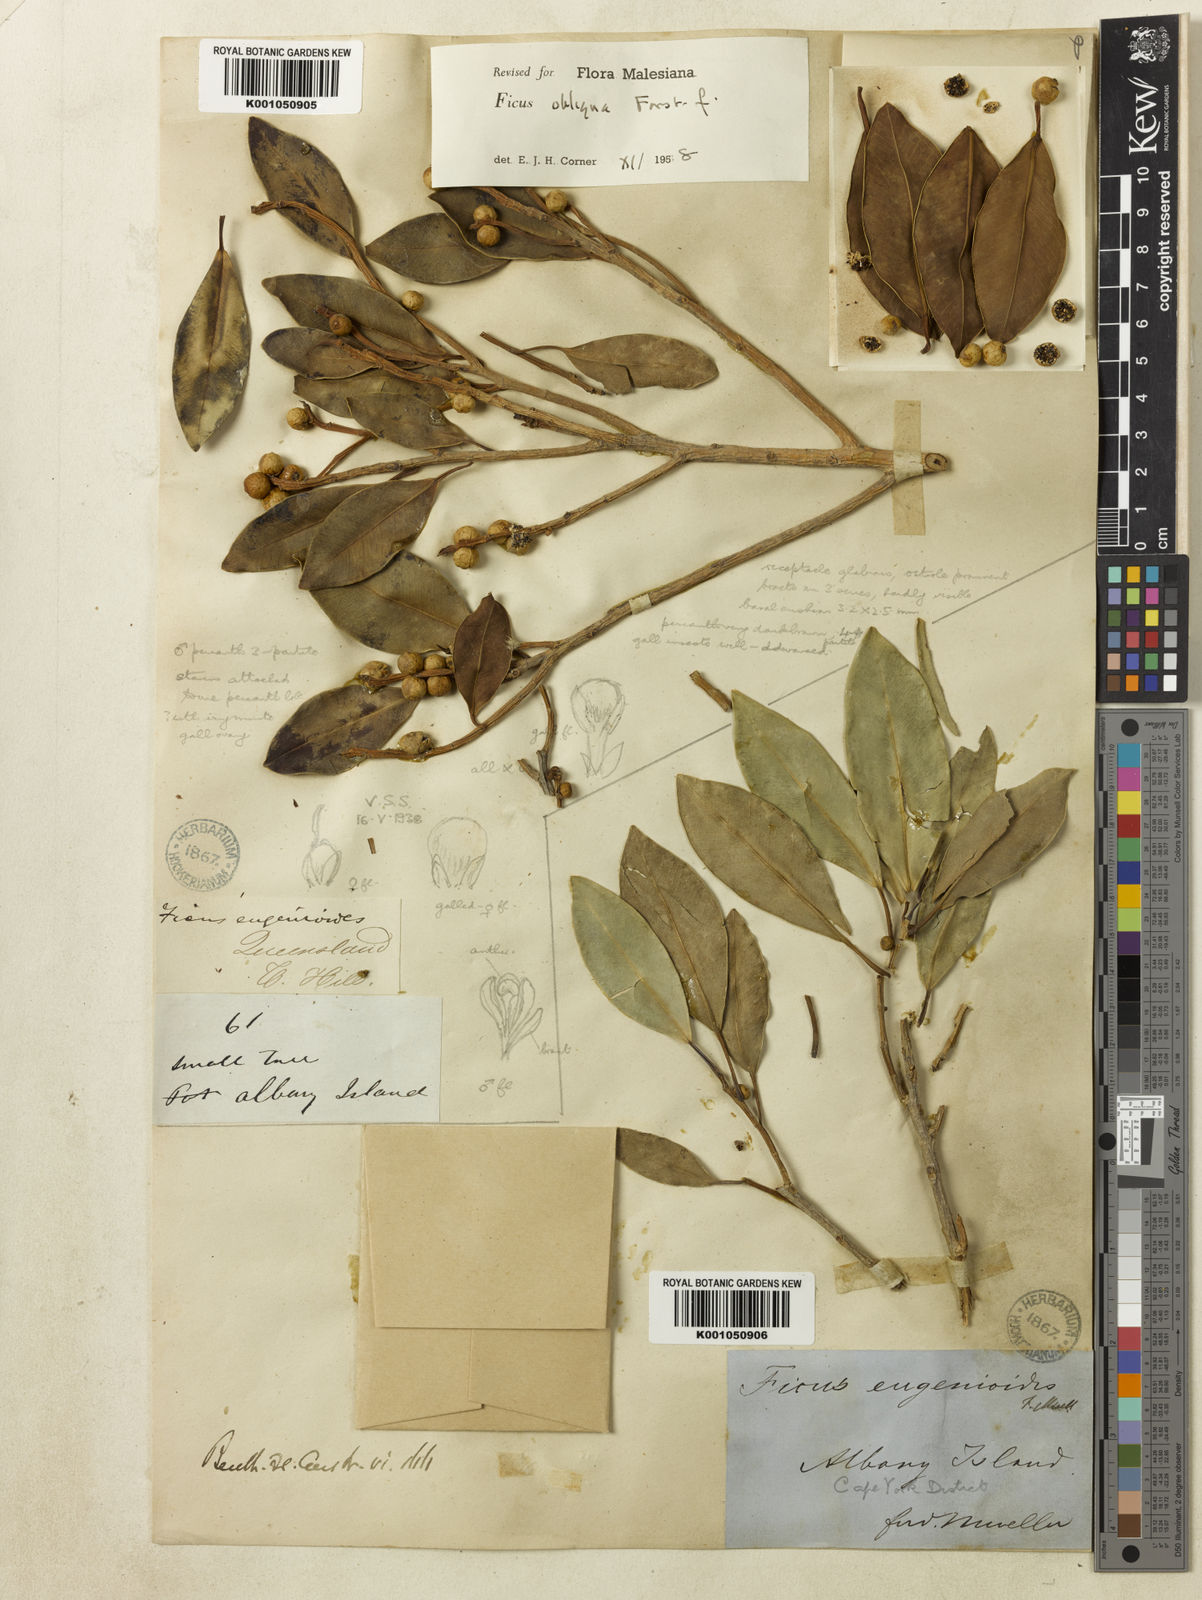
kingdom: Plantae
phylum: Tracheophyta
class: Magnoliopsida
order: Rosales
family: Moraceae
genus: Ficus
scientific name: Ficus obliqua
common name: Small-leaf fig
